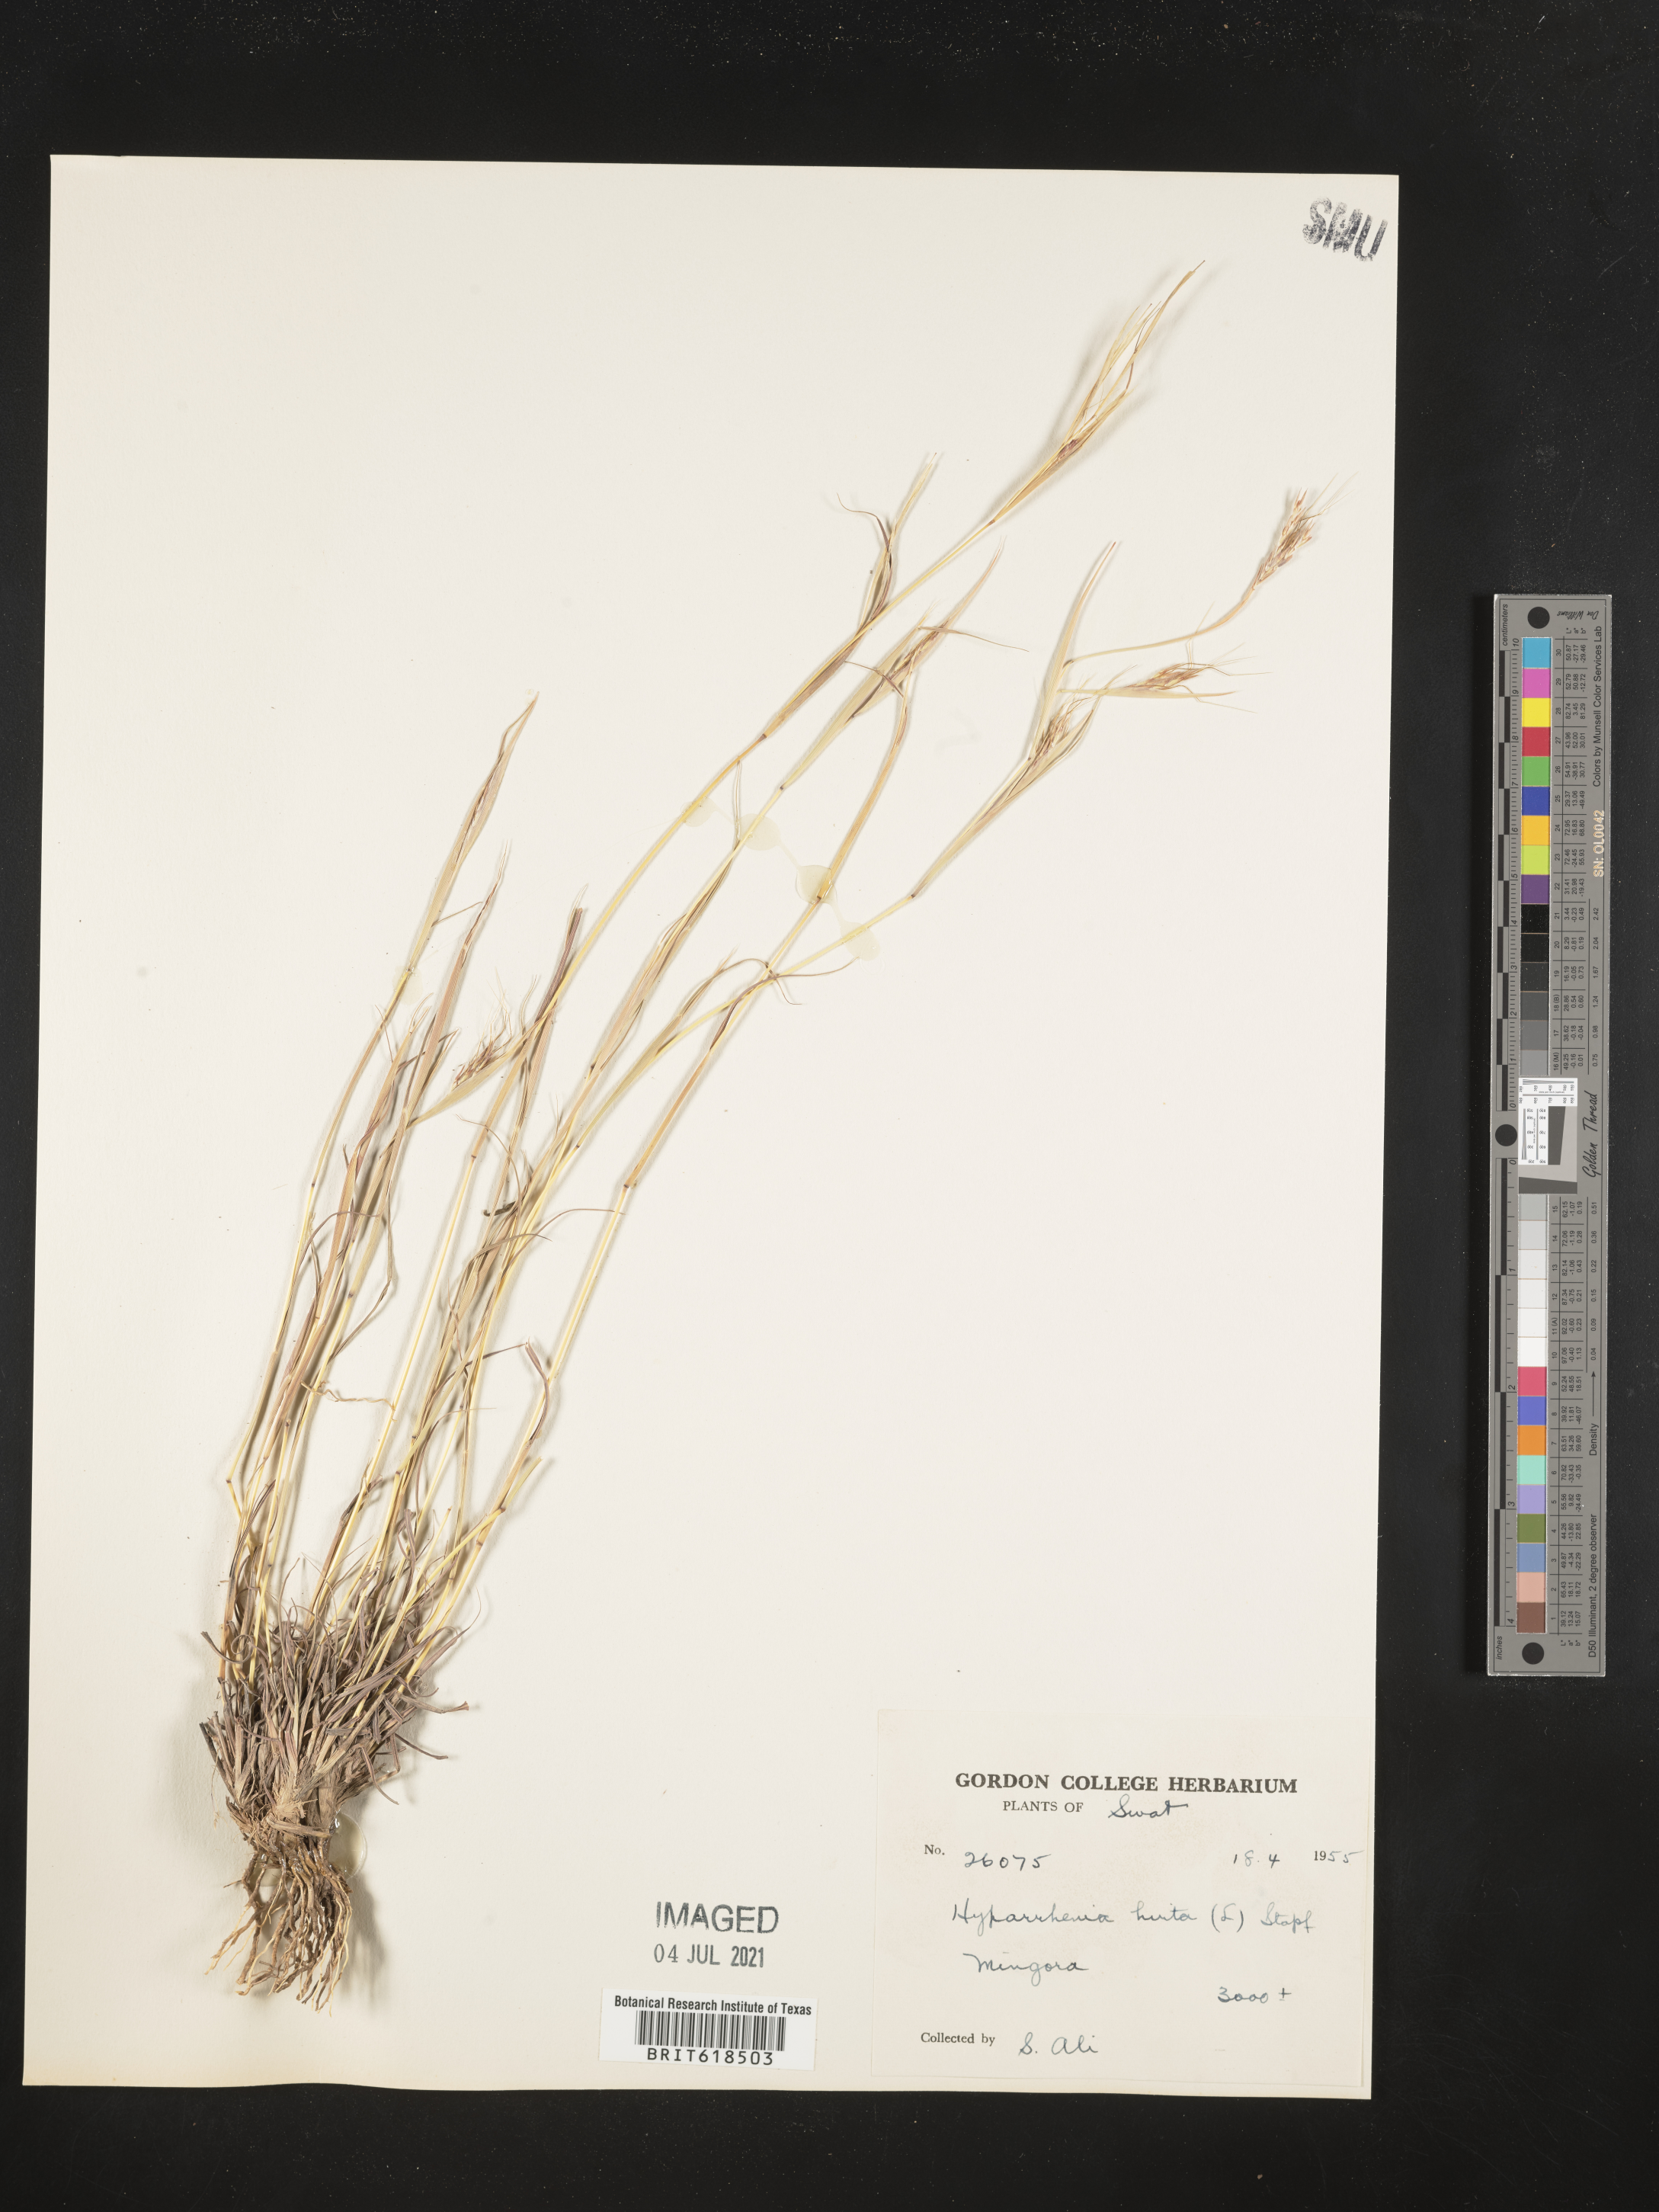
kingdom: Plantae
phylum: Tracheophyta
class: Liliopsida
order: Poales
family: Poaceae
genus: Hyparrhenia
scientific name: Hyparrhenia hirta
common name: Thatching grass
